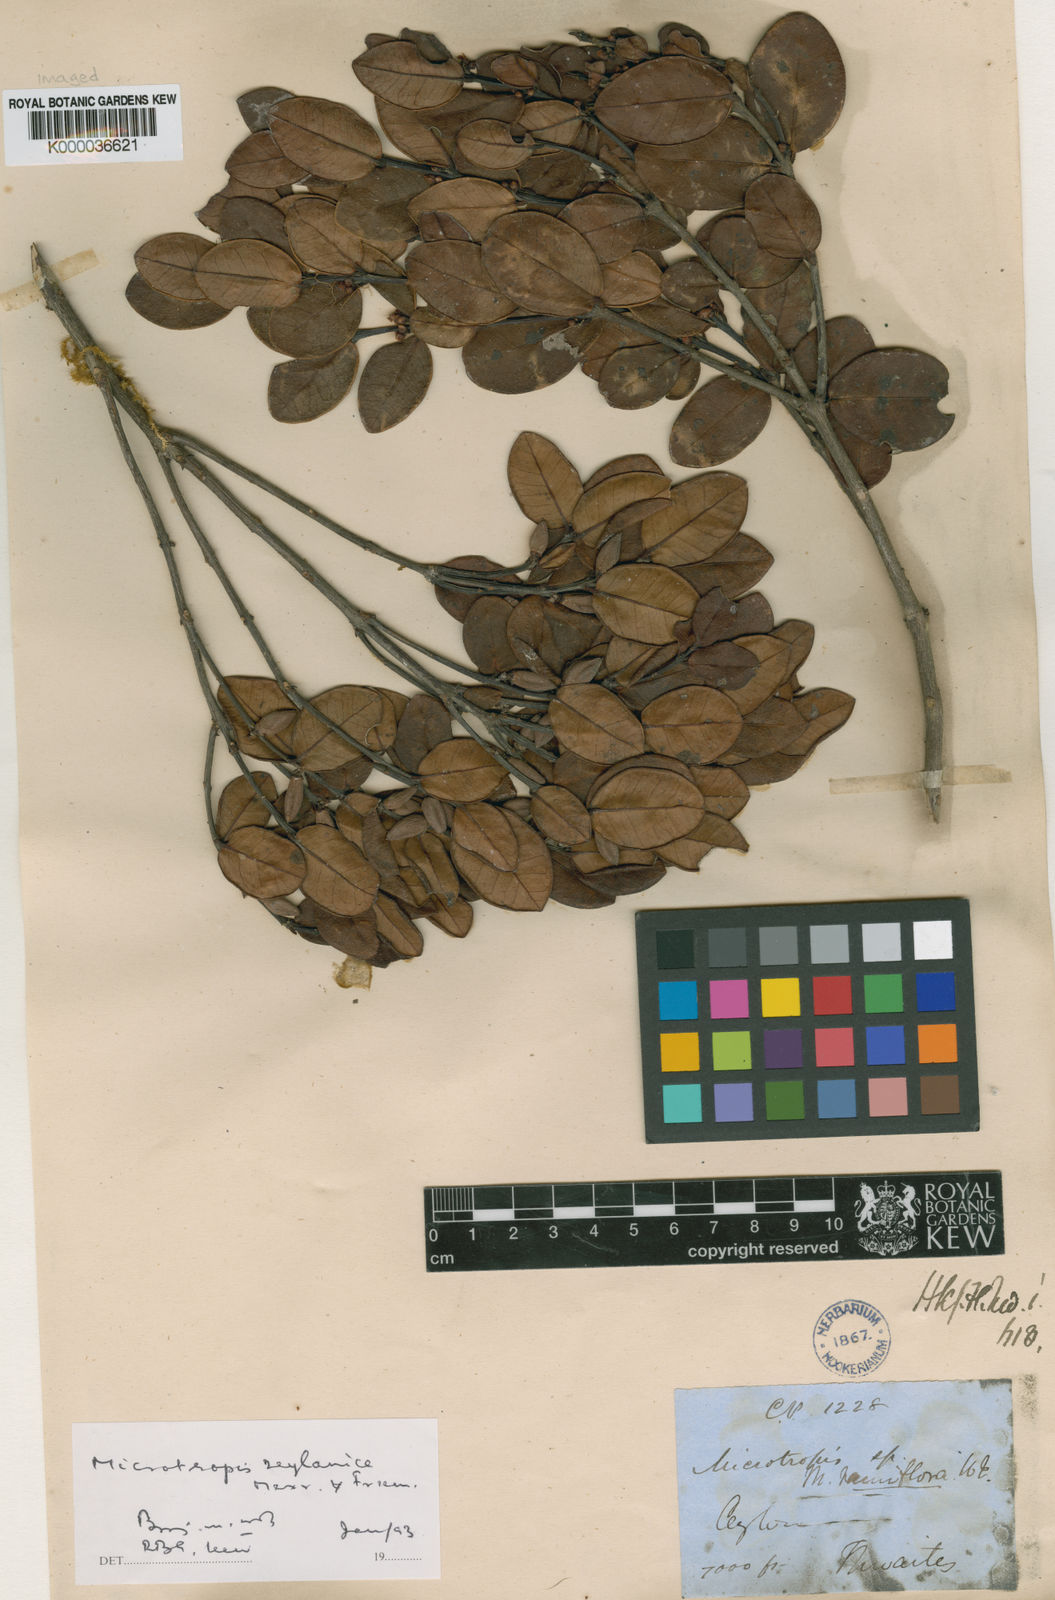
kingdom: Plantae
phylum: Tracheophyta
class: Magnoliopsida
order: Celastrales
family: Celastraceae
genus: Microtropis
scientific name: Microtropis zeylanica
